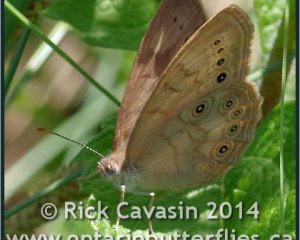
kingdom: Animalia
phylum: Arthropoda
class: Insecta
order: Lepidoptera
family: Nymphalidae
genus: Lethe
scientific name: Lethe eurydice
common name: Eyed Brown
